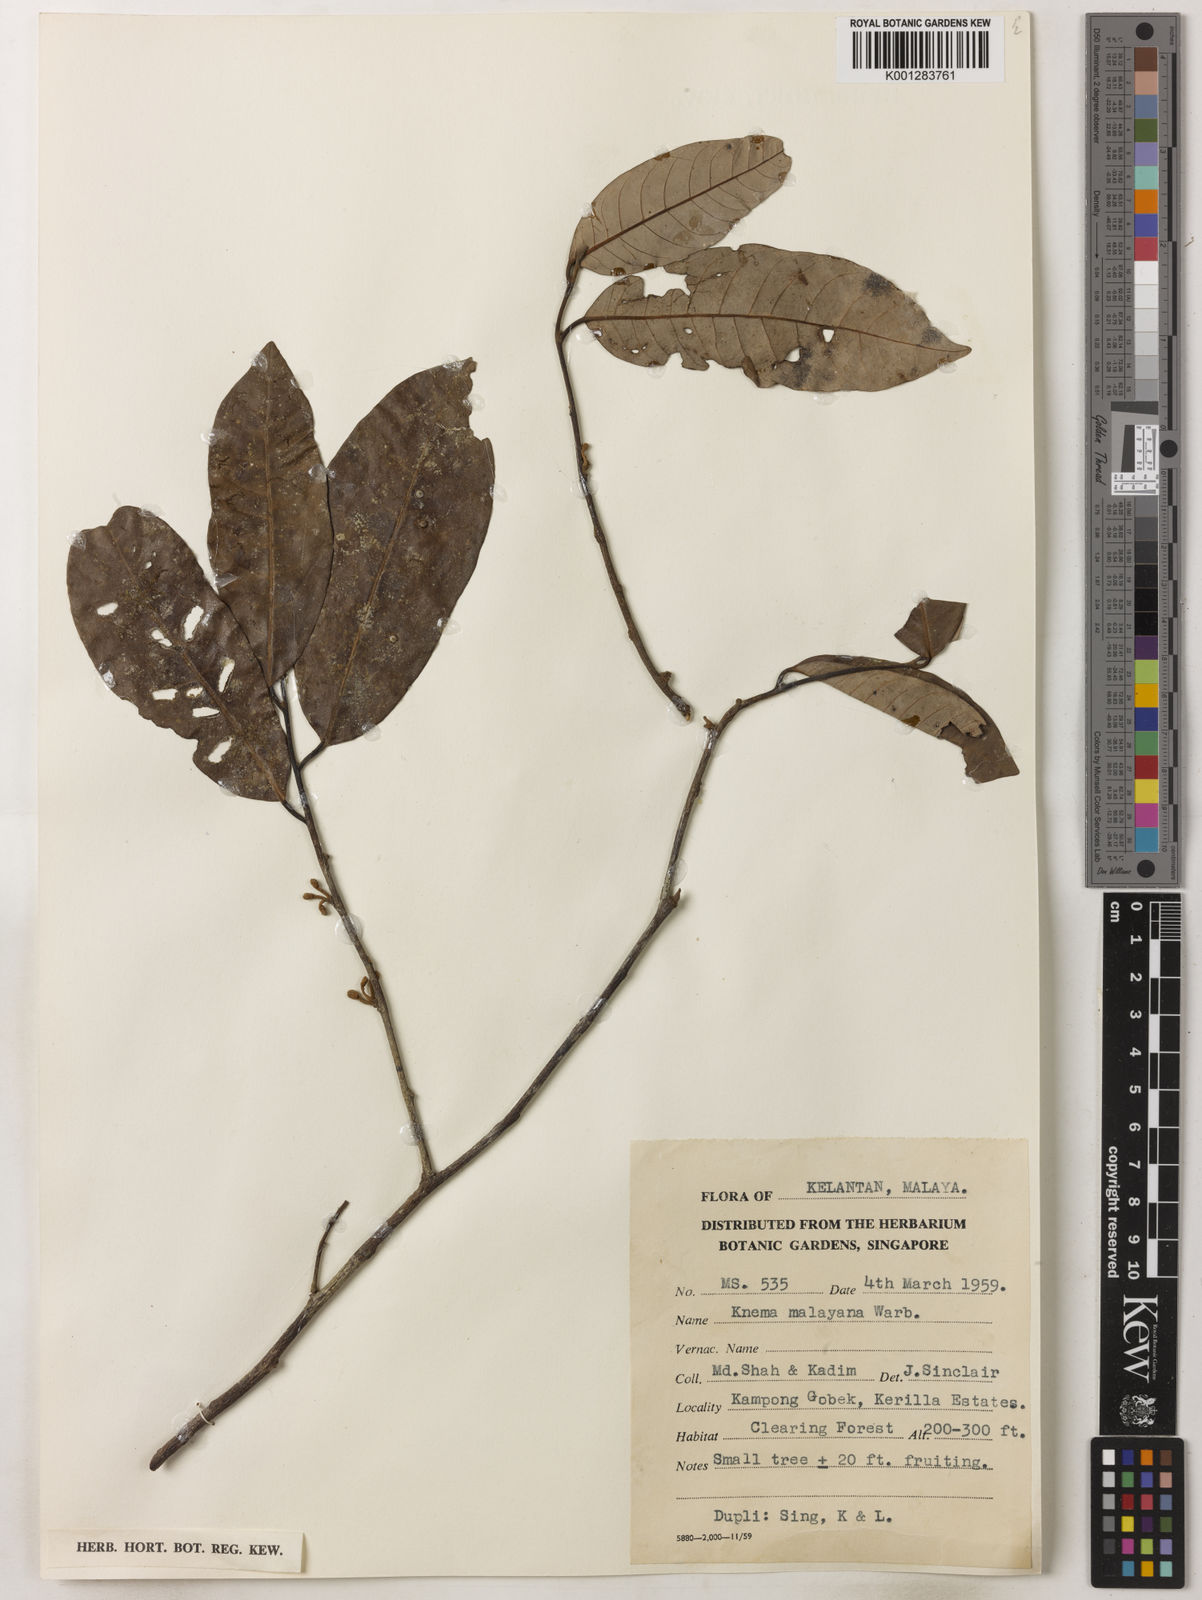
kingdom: Plantae
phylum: Tracheophyta
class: Magnoliopsida
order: Magnoliales
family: Myristicaceae
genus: Knema
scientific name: Knema malayana
